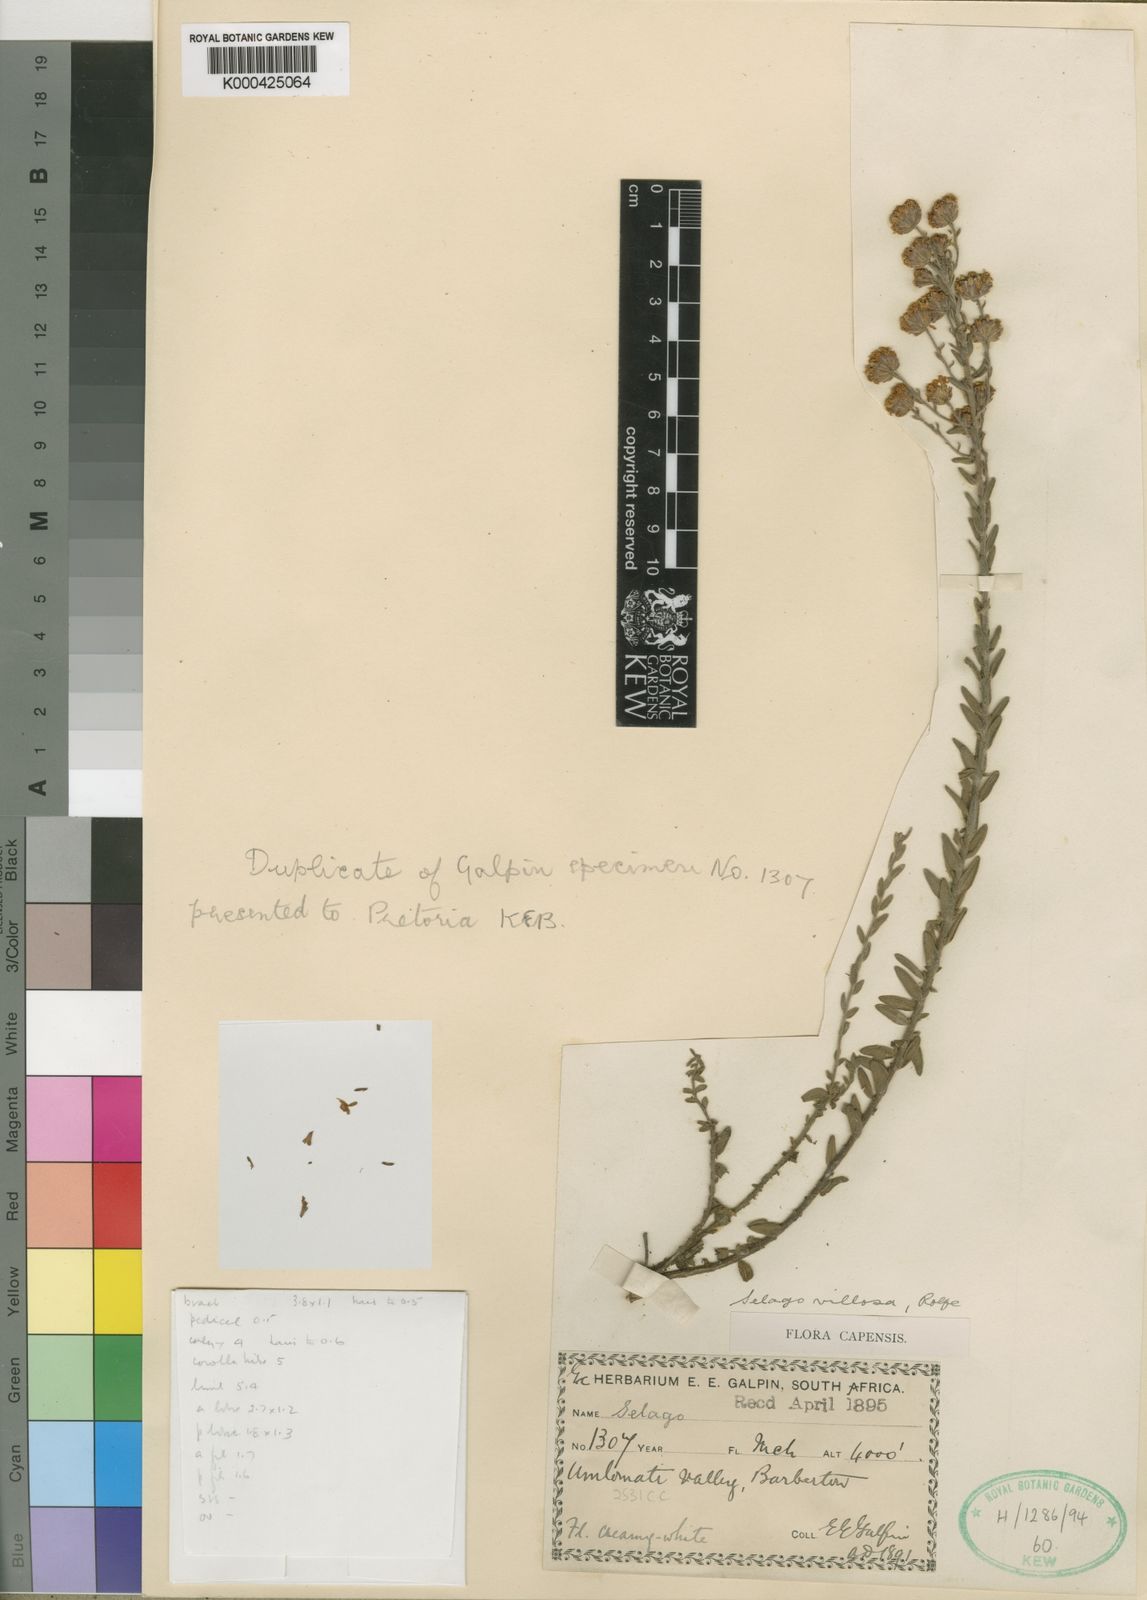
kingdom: Plantae
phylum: Tracheophyta
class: Magnoliopsida
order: Lamiales
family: Scrophulariaceae
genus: Selago
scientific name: Selago villosa
